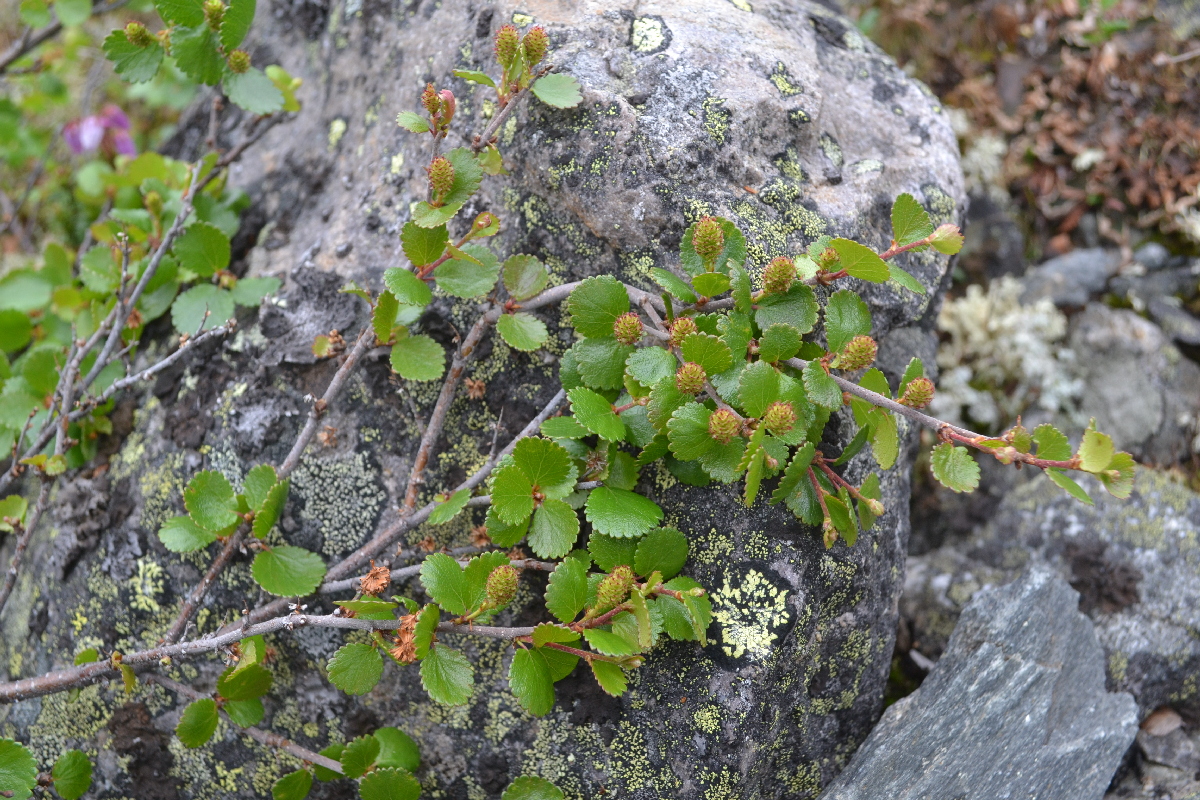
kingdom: Plantae
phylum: Tracheophyta
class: Magnoliopsida
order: Fagales
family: Betulaceae
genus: Betula
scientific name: Betula nana
